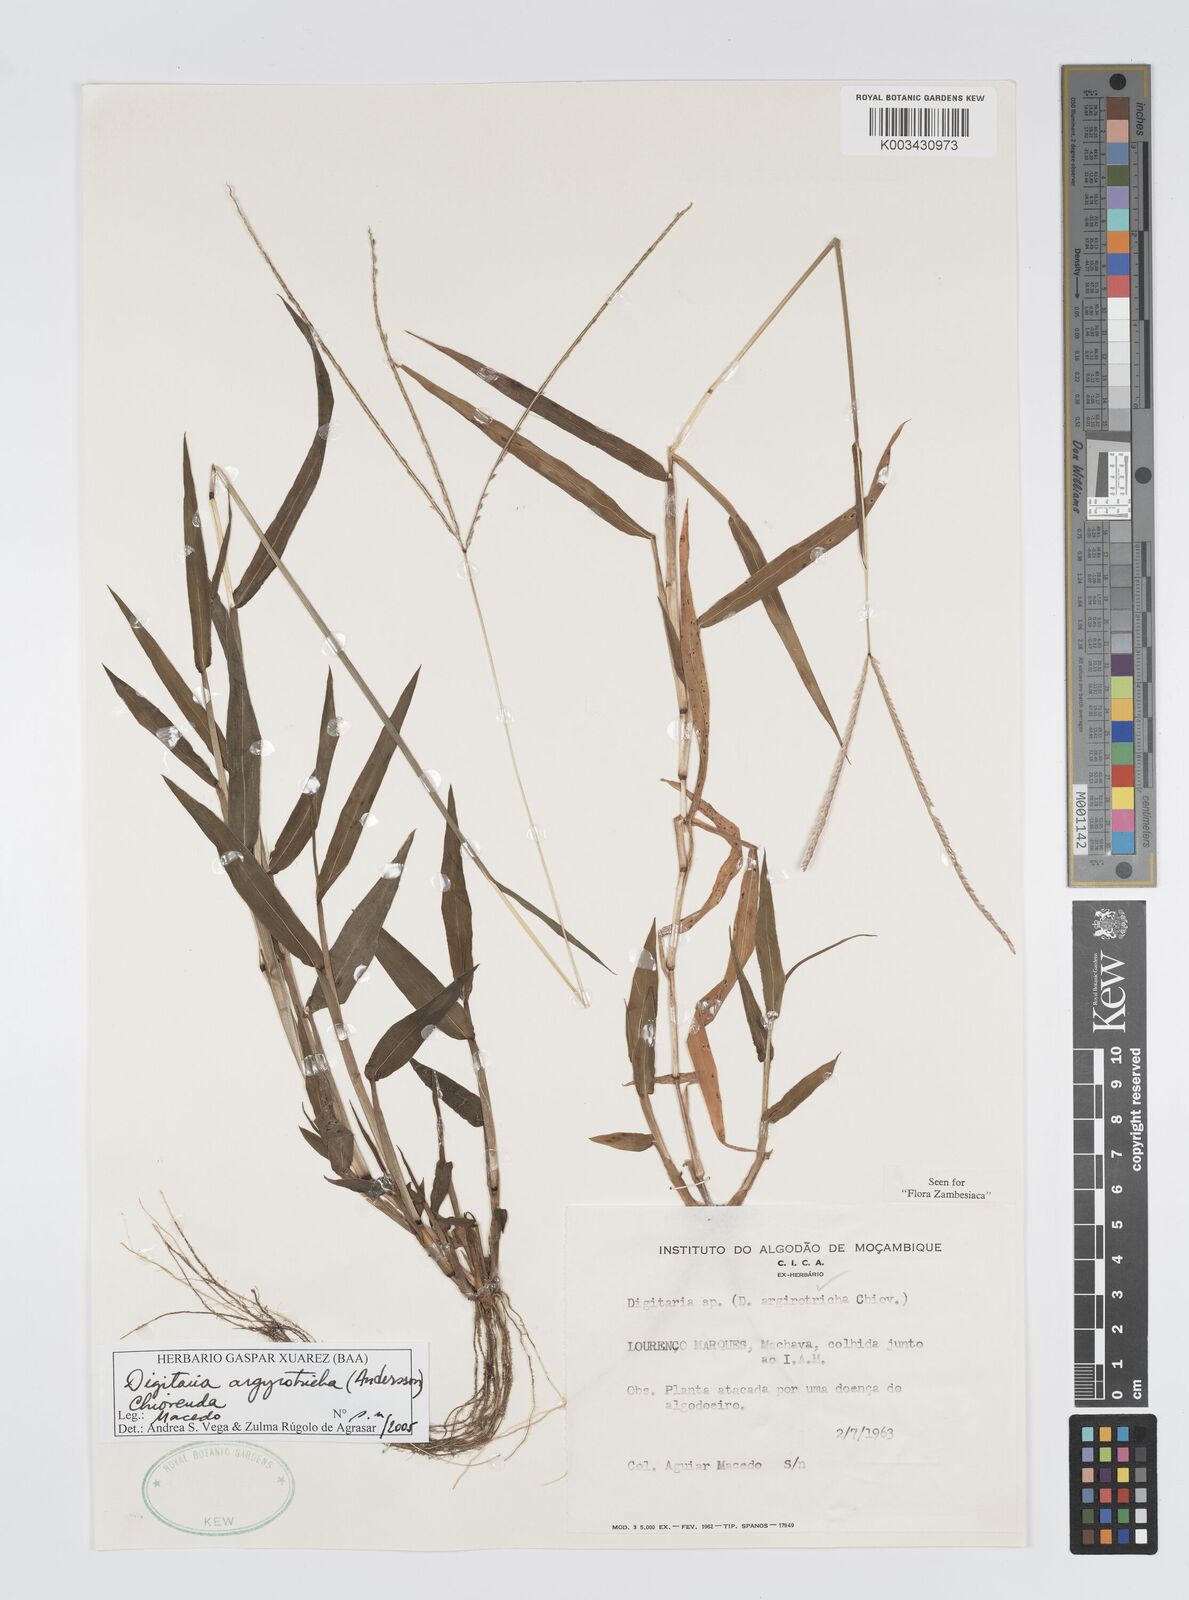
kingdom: Plantae
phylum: Tracheophyta
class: Liliopsida
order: Poales
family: Poaceae
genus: Digitaria
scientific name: Digitaria argyrotricha
